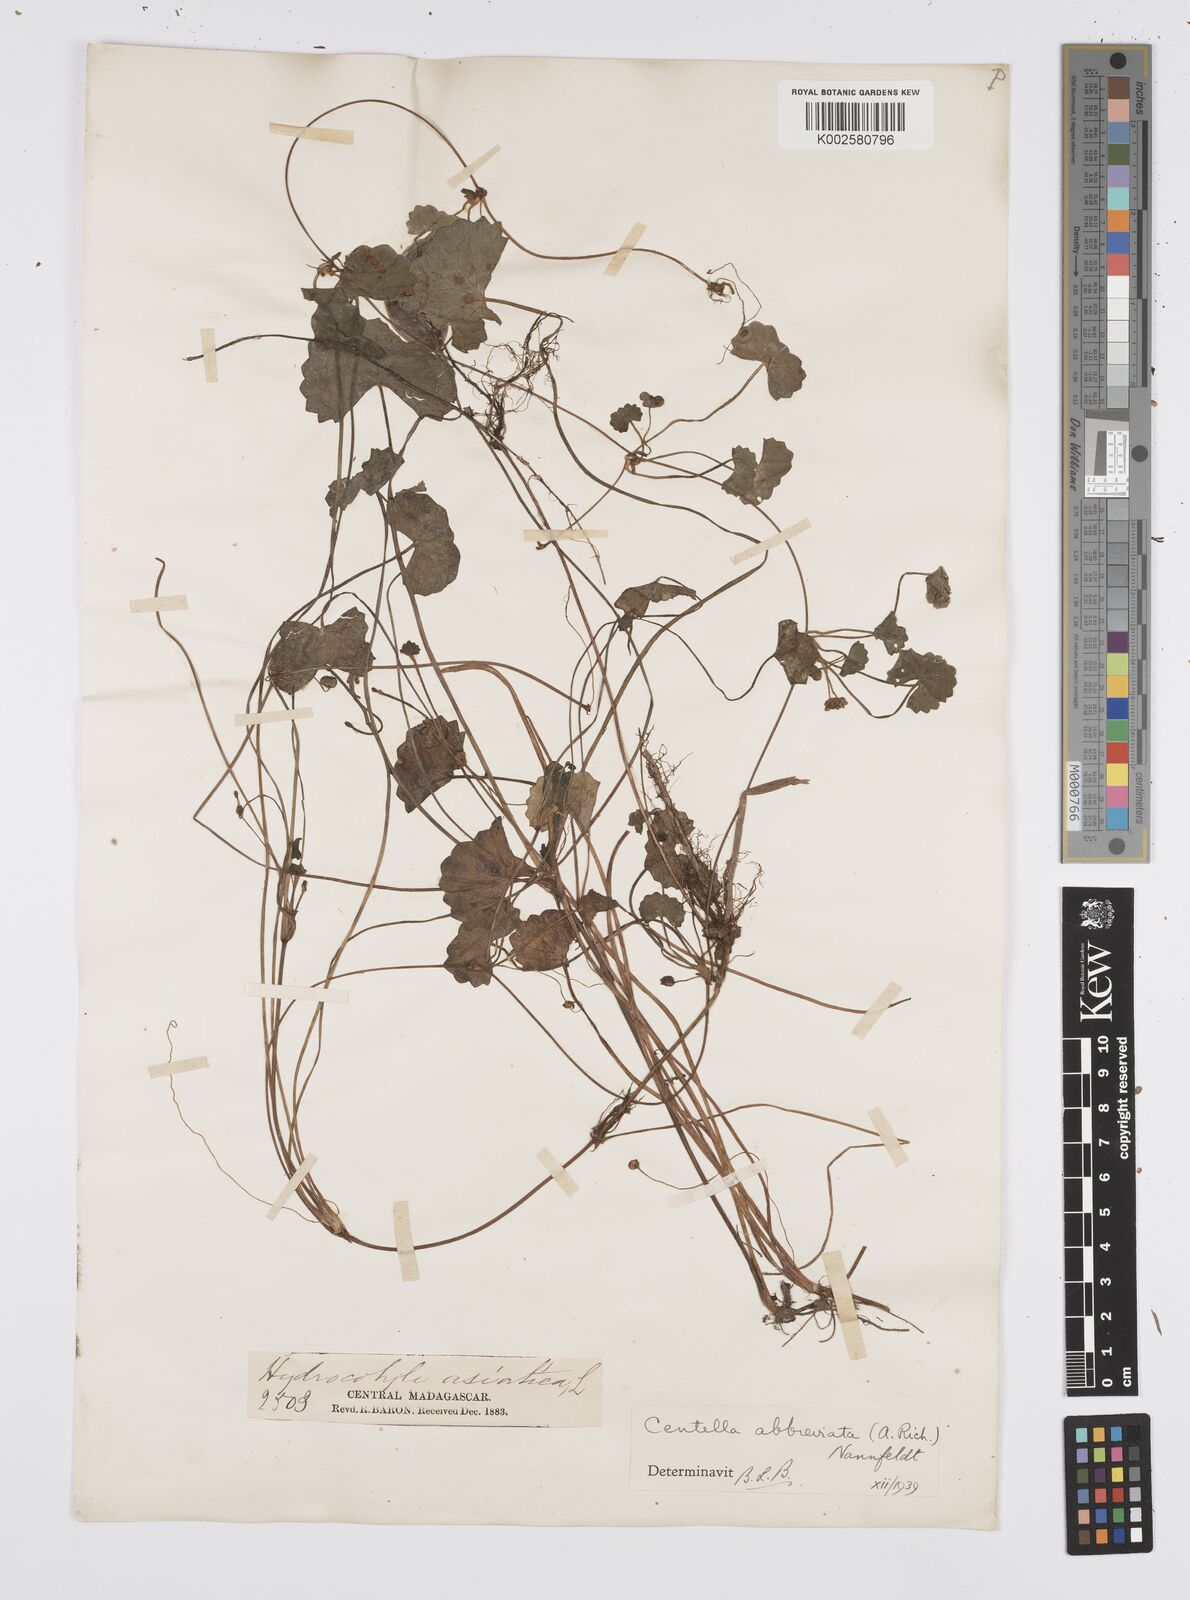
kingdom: Plantae
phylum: Tracheophyta
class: Magnoliopsida
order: Apiales
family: Apiaceae
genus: Centella
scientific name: Centella asiatica
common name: Spadeleaf
